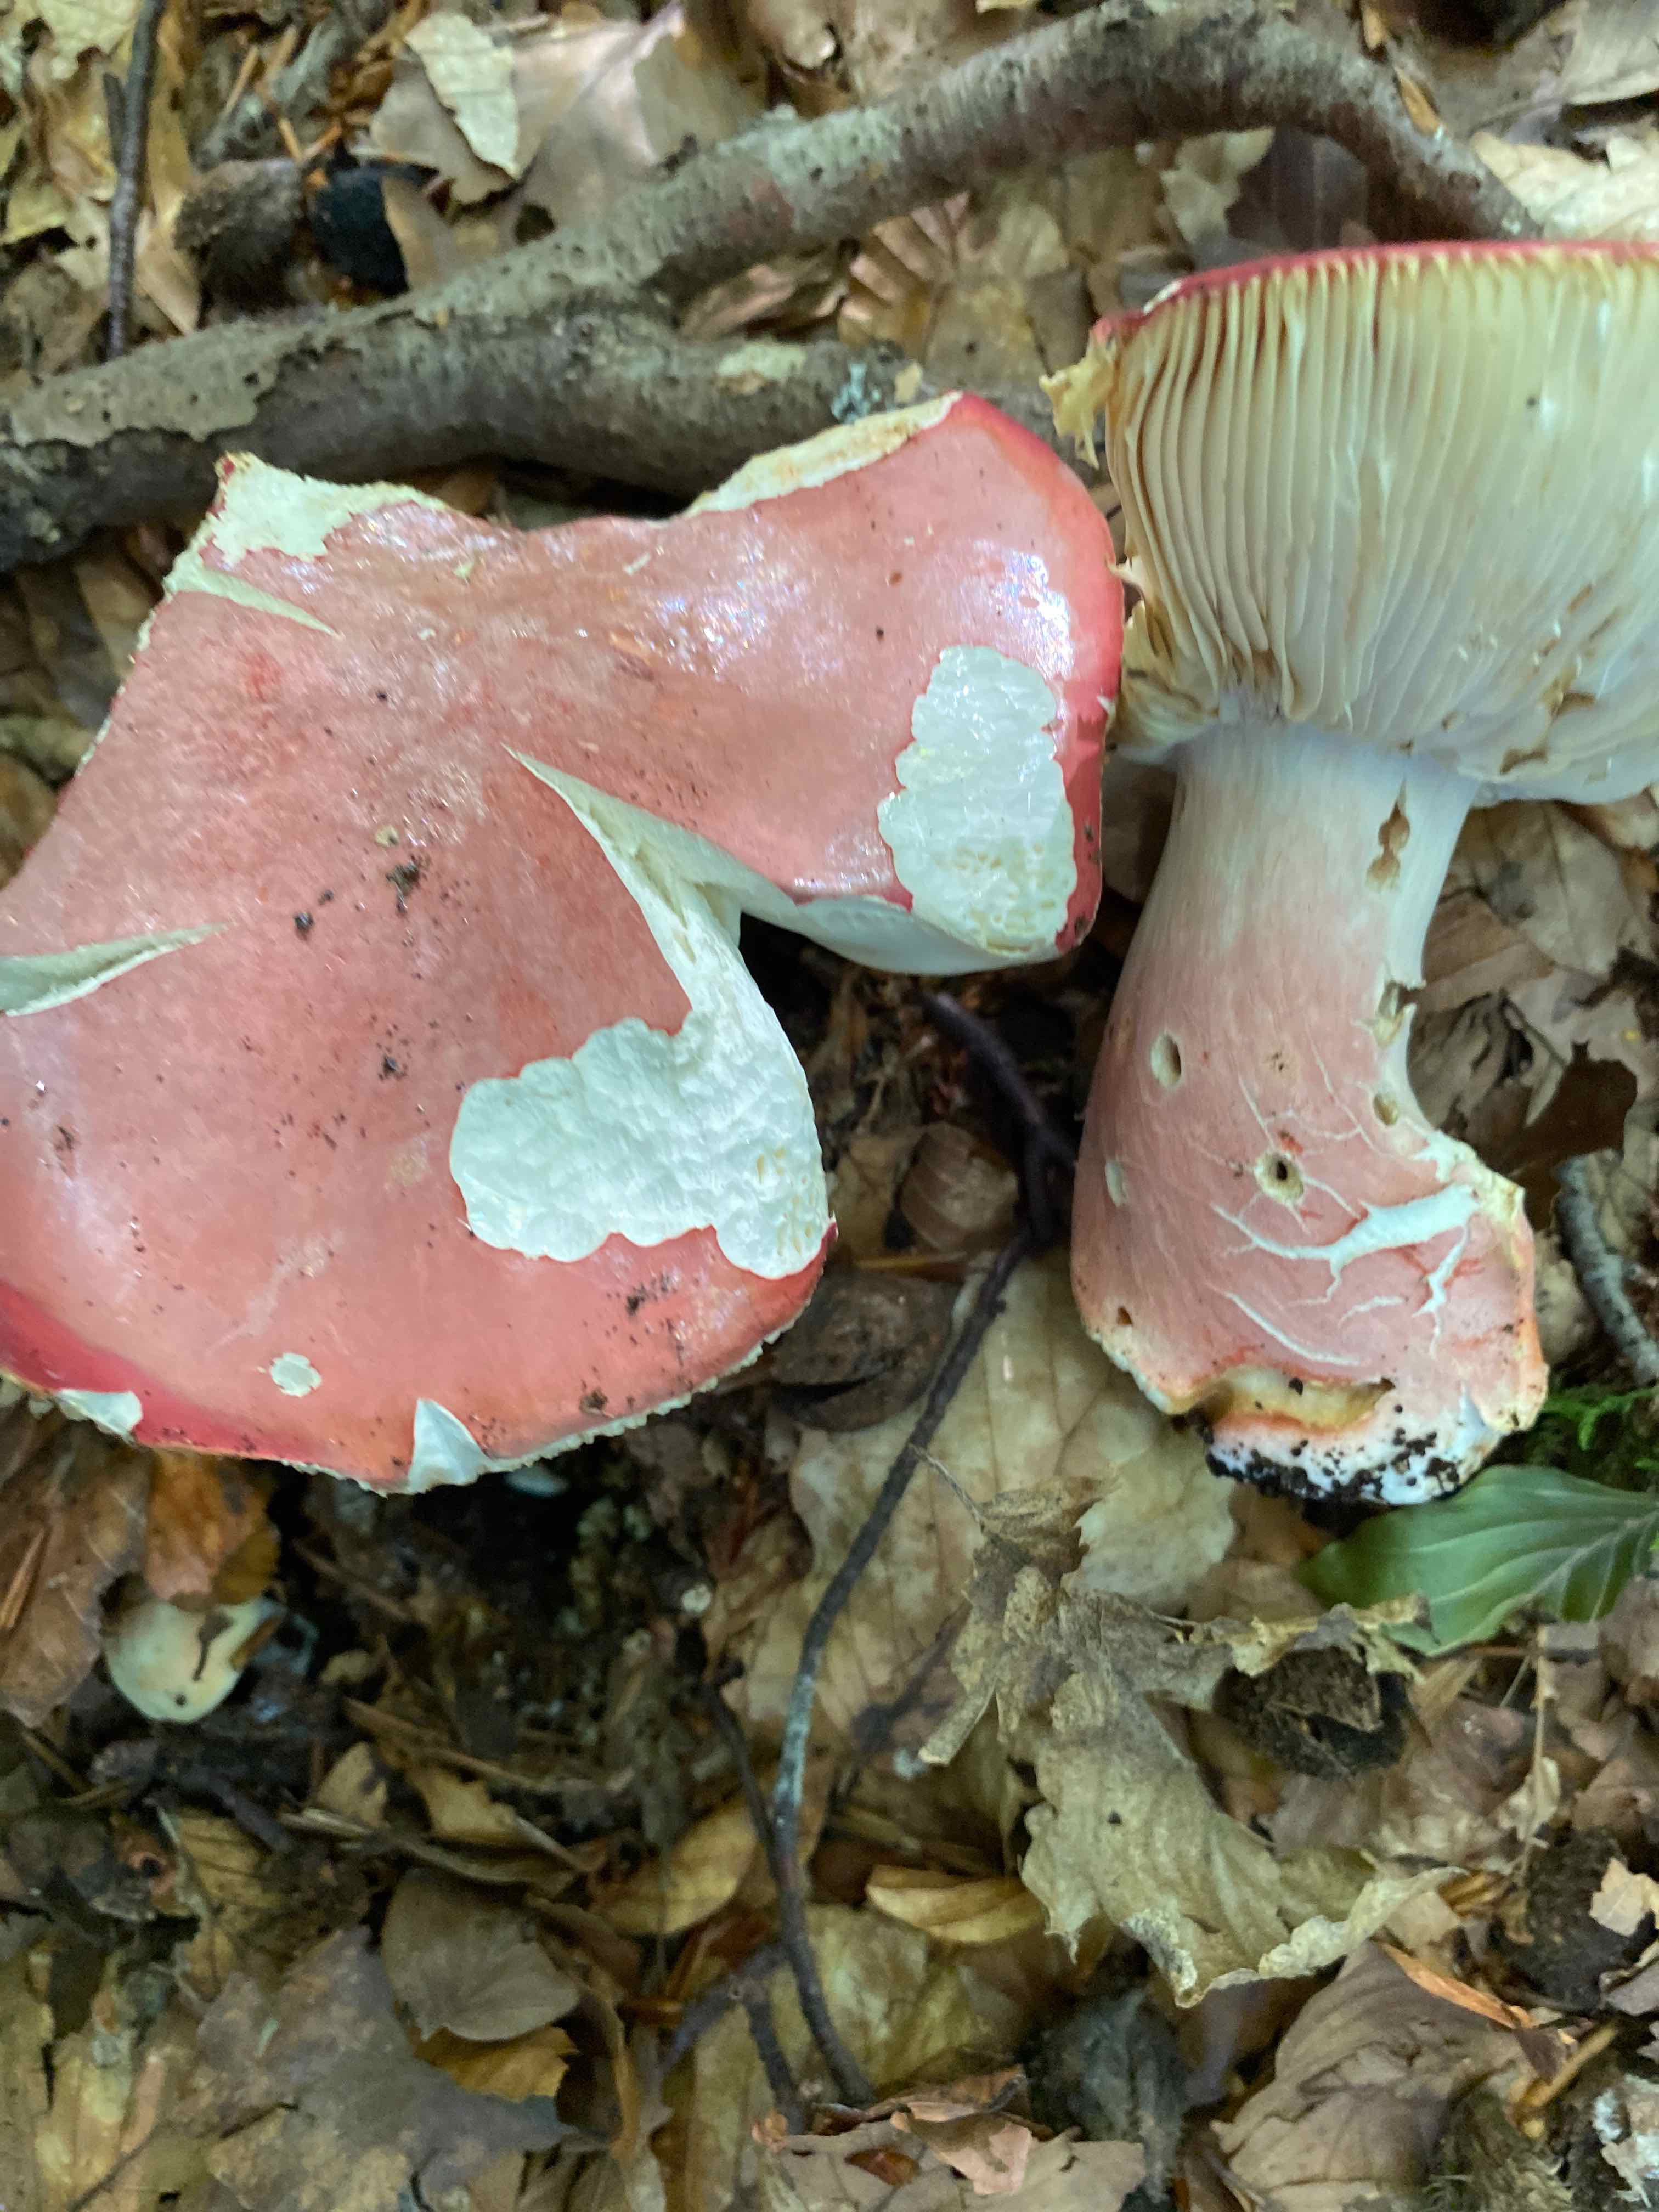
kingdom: Fungi
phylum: Basidiomycota
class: Agaricomycetes
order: Russulales
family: Russulaceae
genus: Russula
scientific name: Russula rosea
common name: fastkødet skørhat
